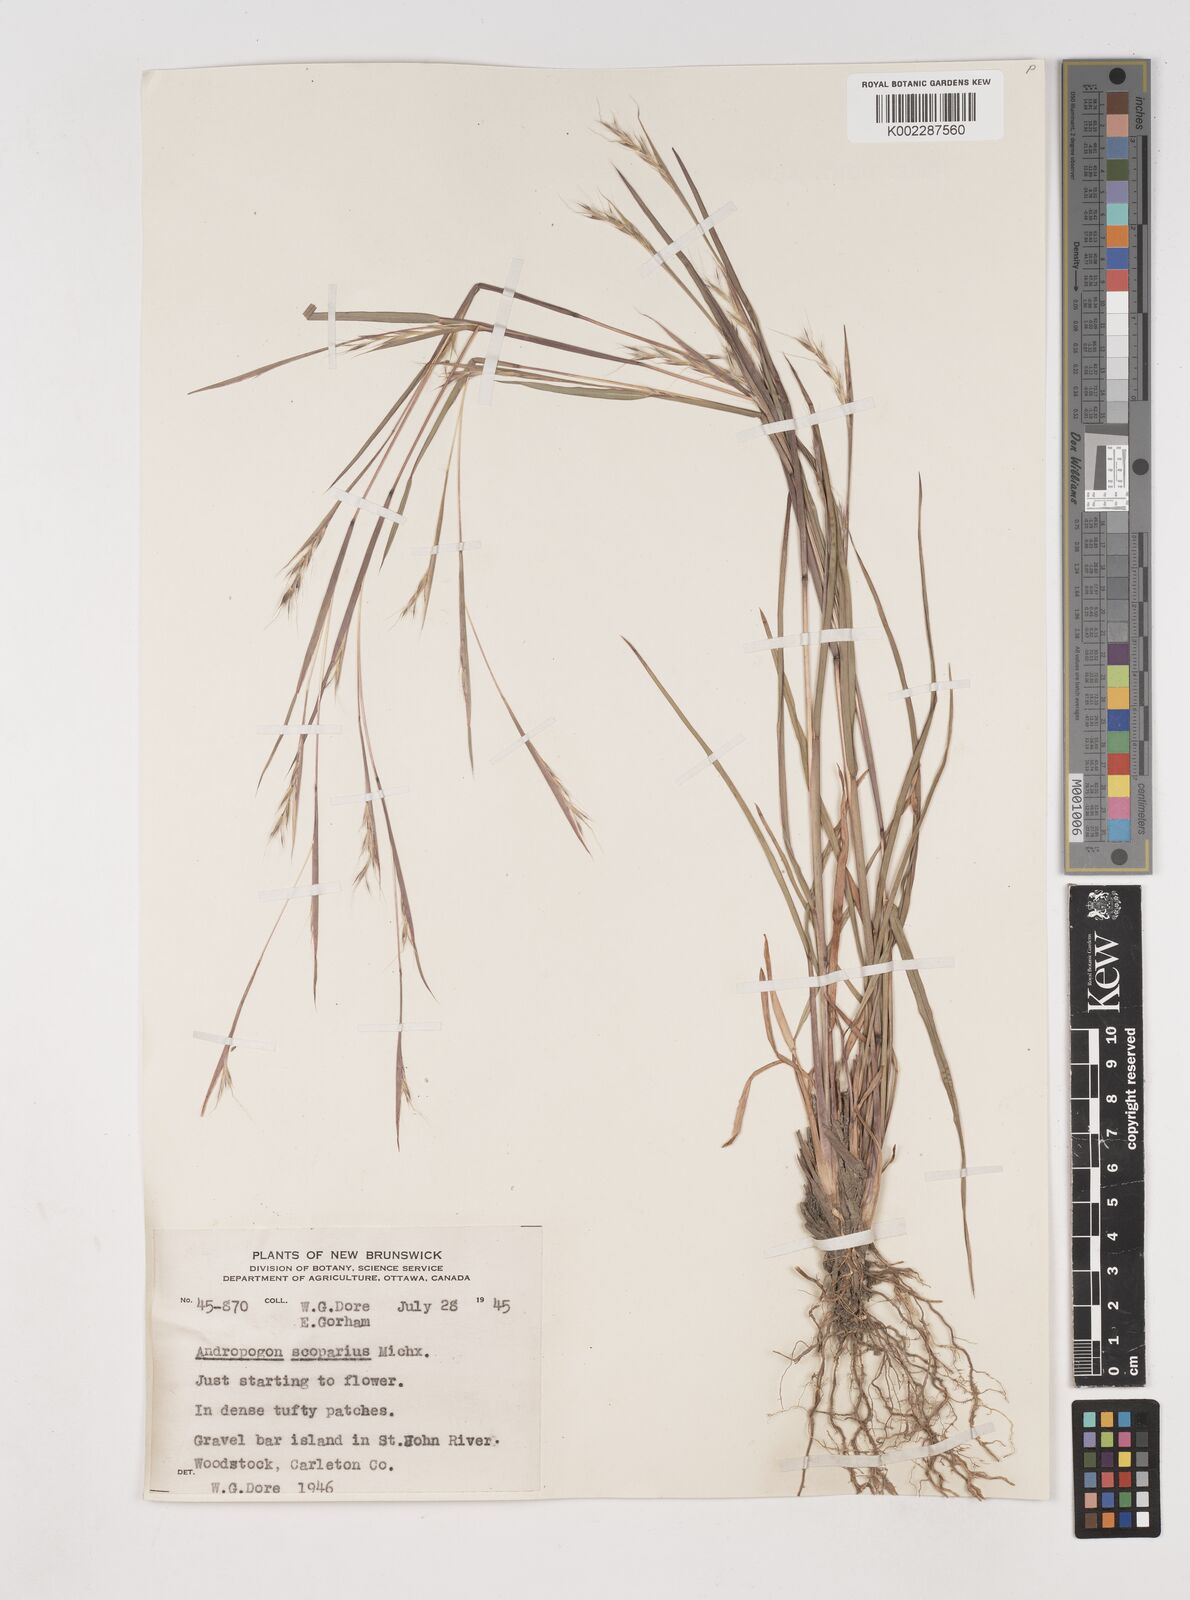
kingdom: Plantae
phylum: Tracheophyta
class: Liliopsida
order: Poales
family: Poaceae
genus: Schizachyrium
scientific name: Schizachyrium scoparium
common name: Little bluestem
